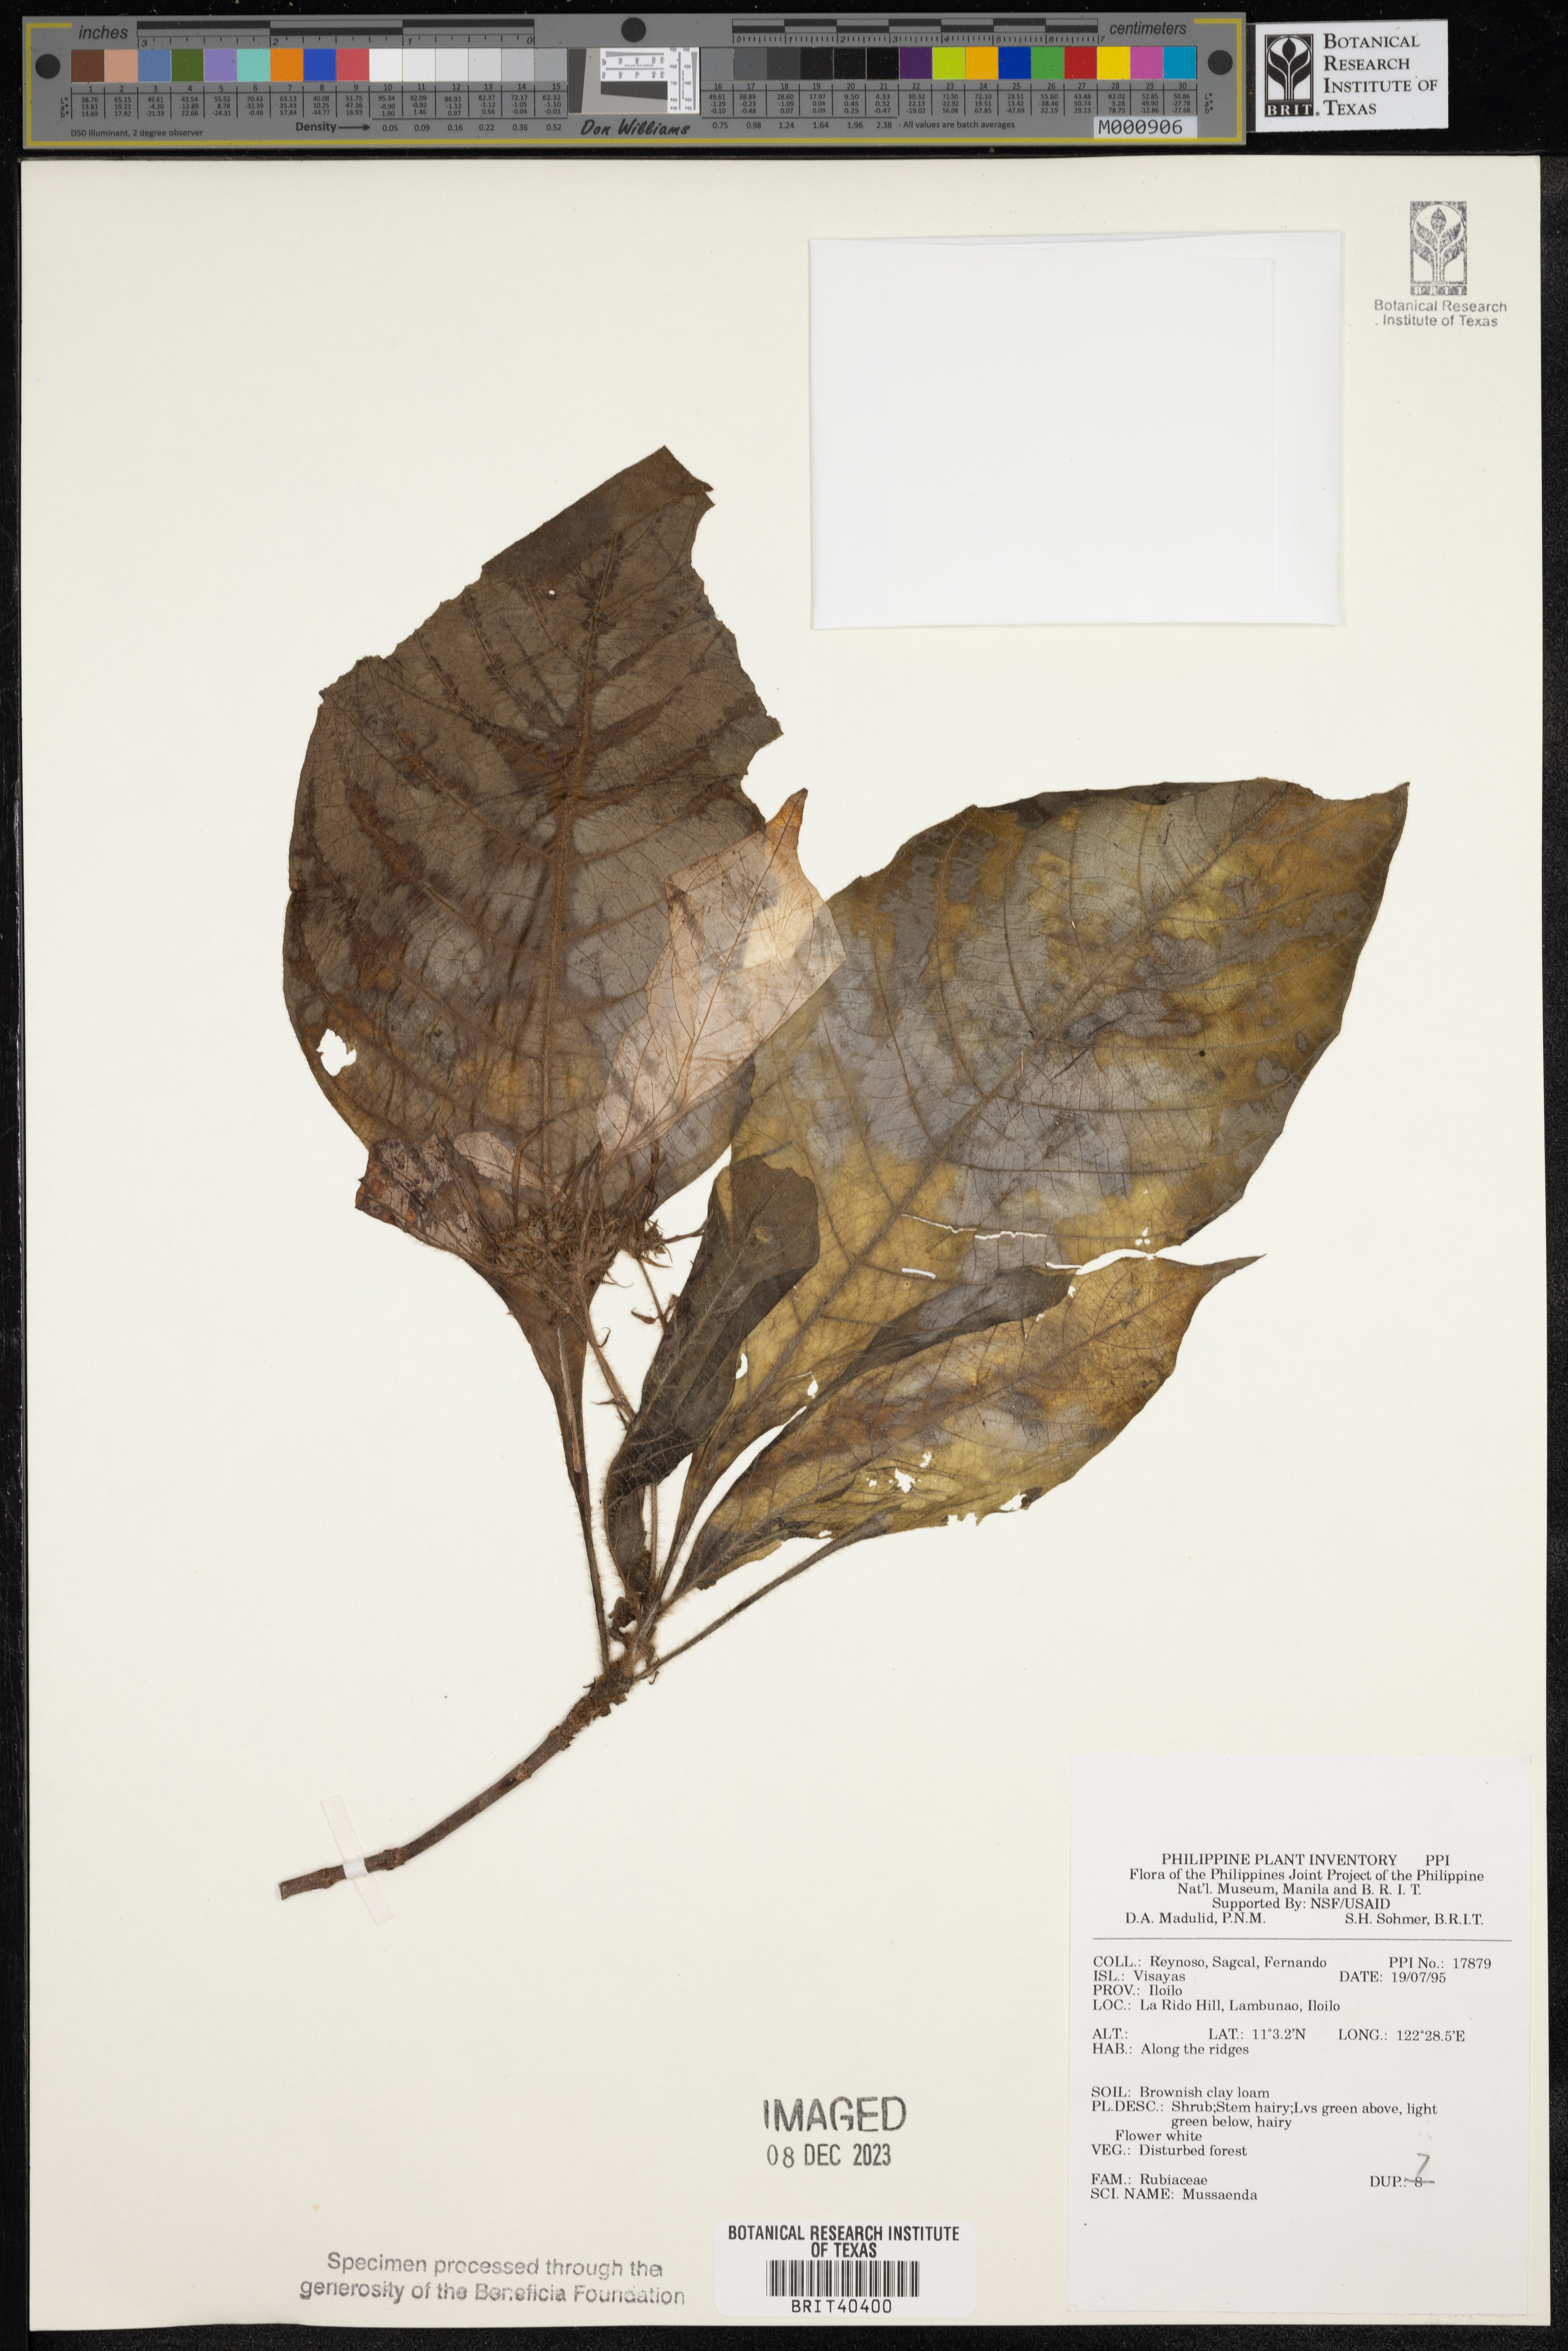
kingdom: Plantae
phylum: Tracheophyta
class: Magnoliopsida
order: Gentianales
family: Rubiaceae
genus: Mussaenda
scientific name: Mussaenda
